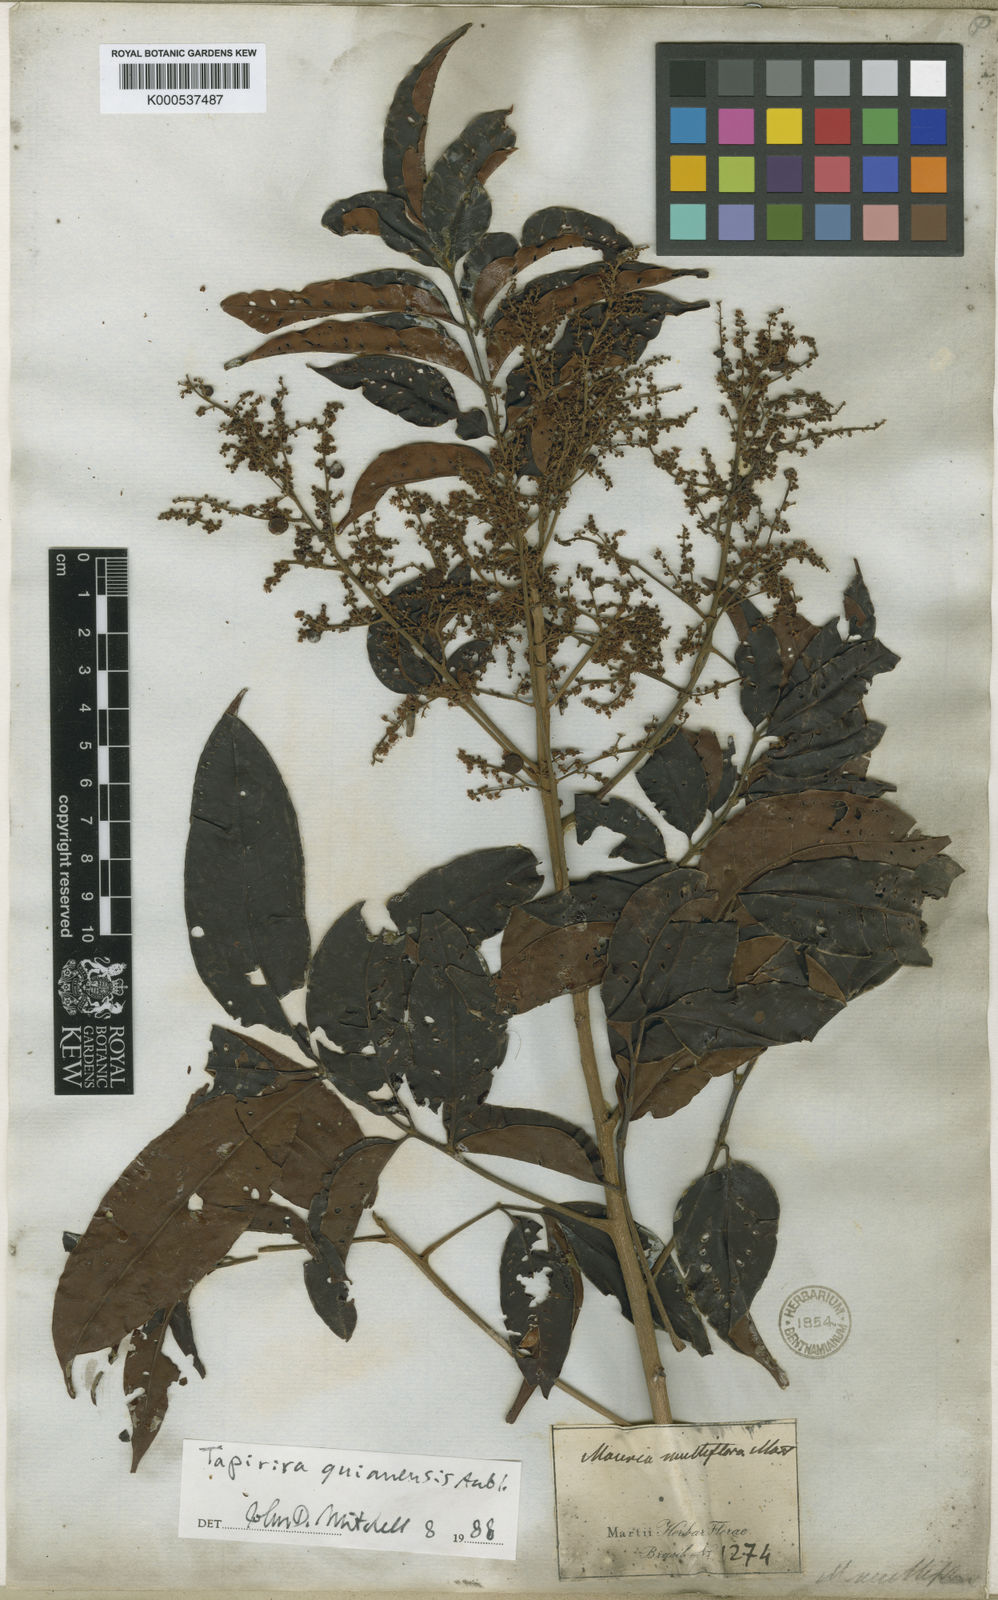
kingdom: Plantae
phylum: Tracheophyta
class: Magnoliopsida
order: Sapindales
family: Anacardiaceae
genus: Tapirira
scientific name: Tapirira guianensis
